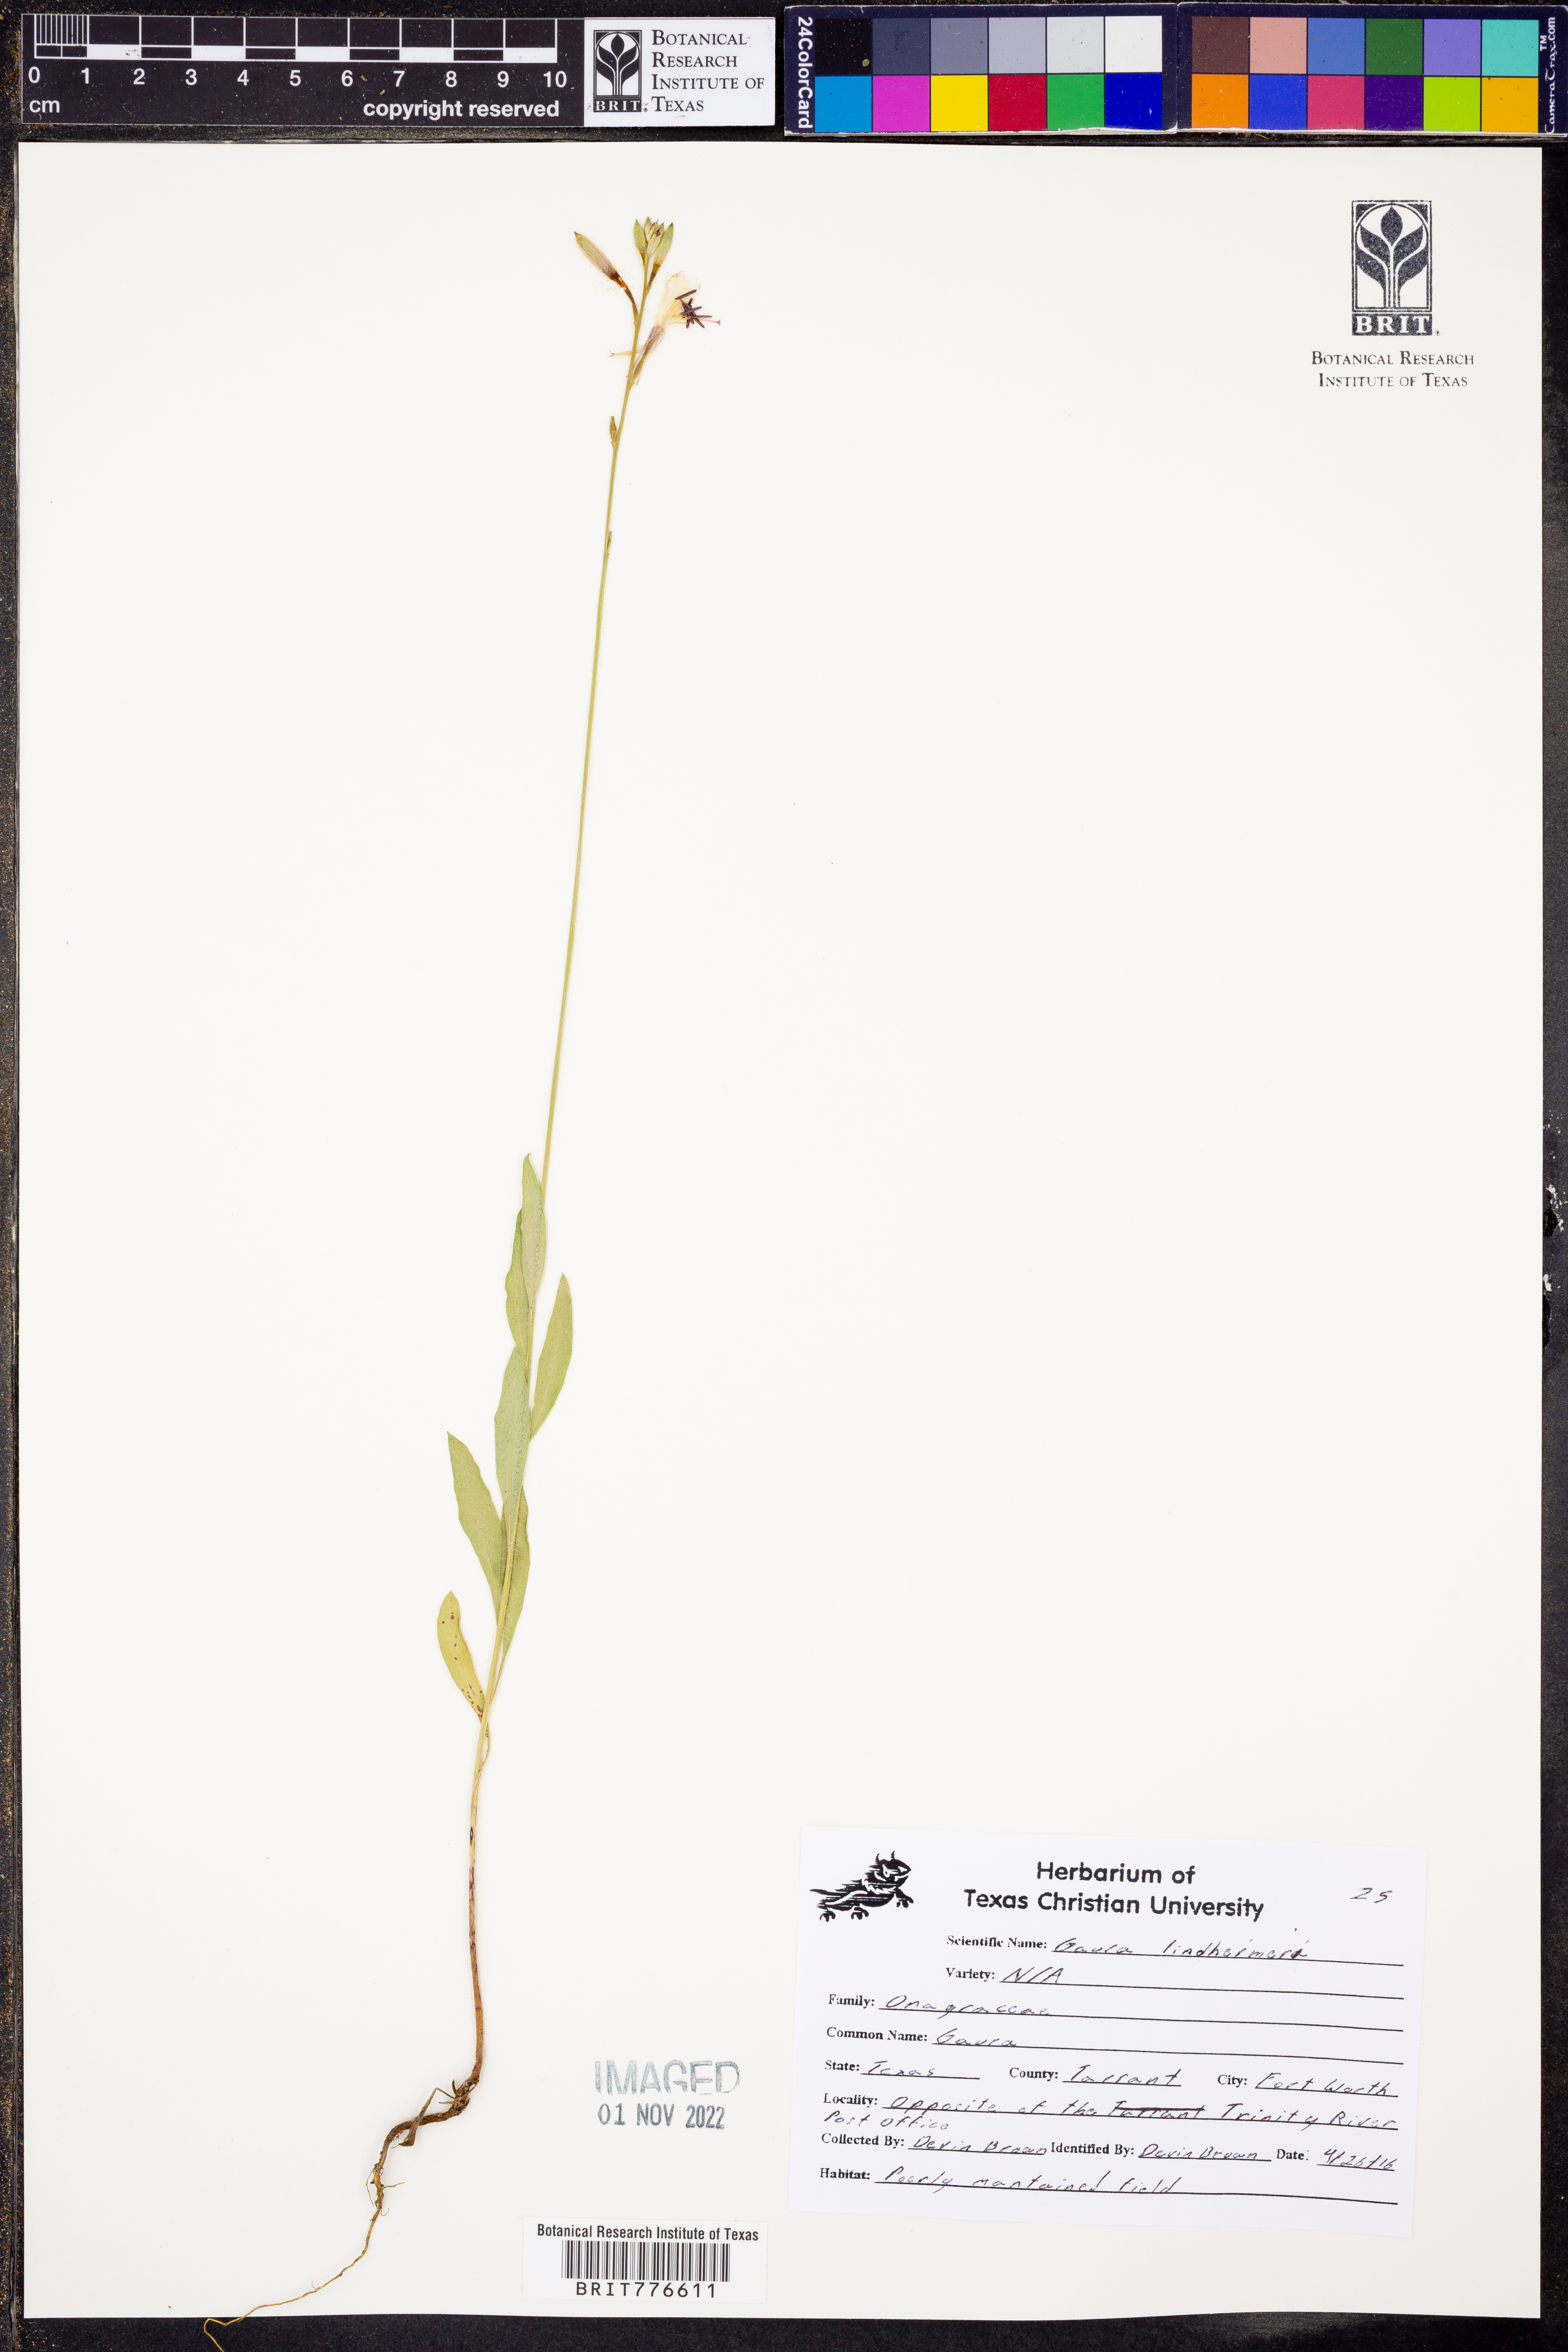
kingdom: Plantae
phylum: Tracheophyta
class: Magnoliopsida
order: Myrtales
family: Onagraceae
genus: Oenothera
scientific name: Oenothera lindheimeri
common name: Lindheimer's beeblossom
